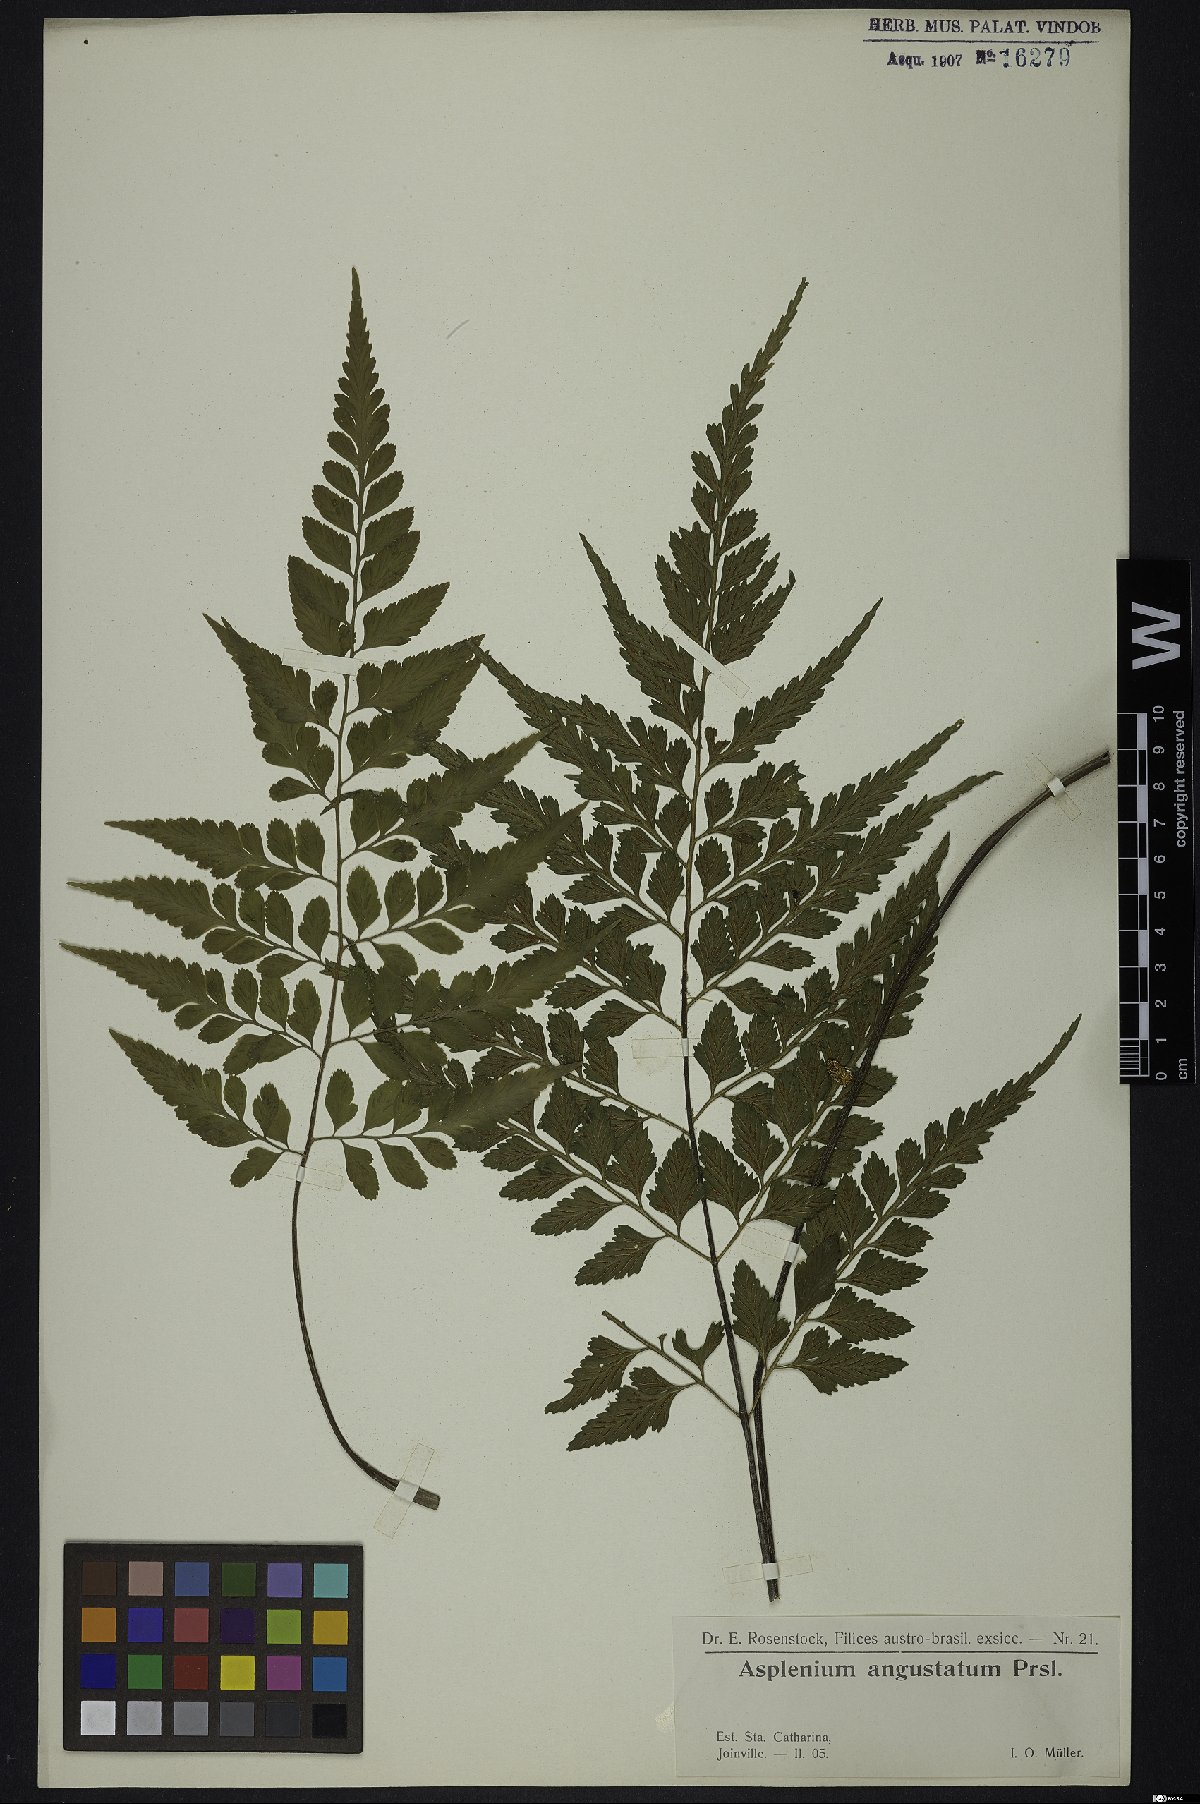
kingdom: Plantae
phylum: Tracheophyta
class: Polypodiopsida
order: Polypodiales
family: Aspleniaceae
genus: Asplenium
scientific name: Asplenium oligophyllum
